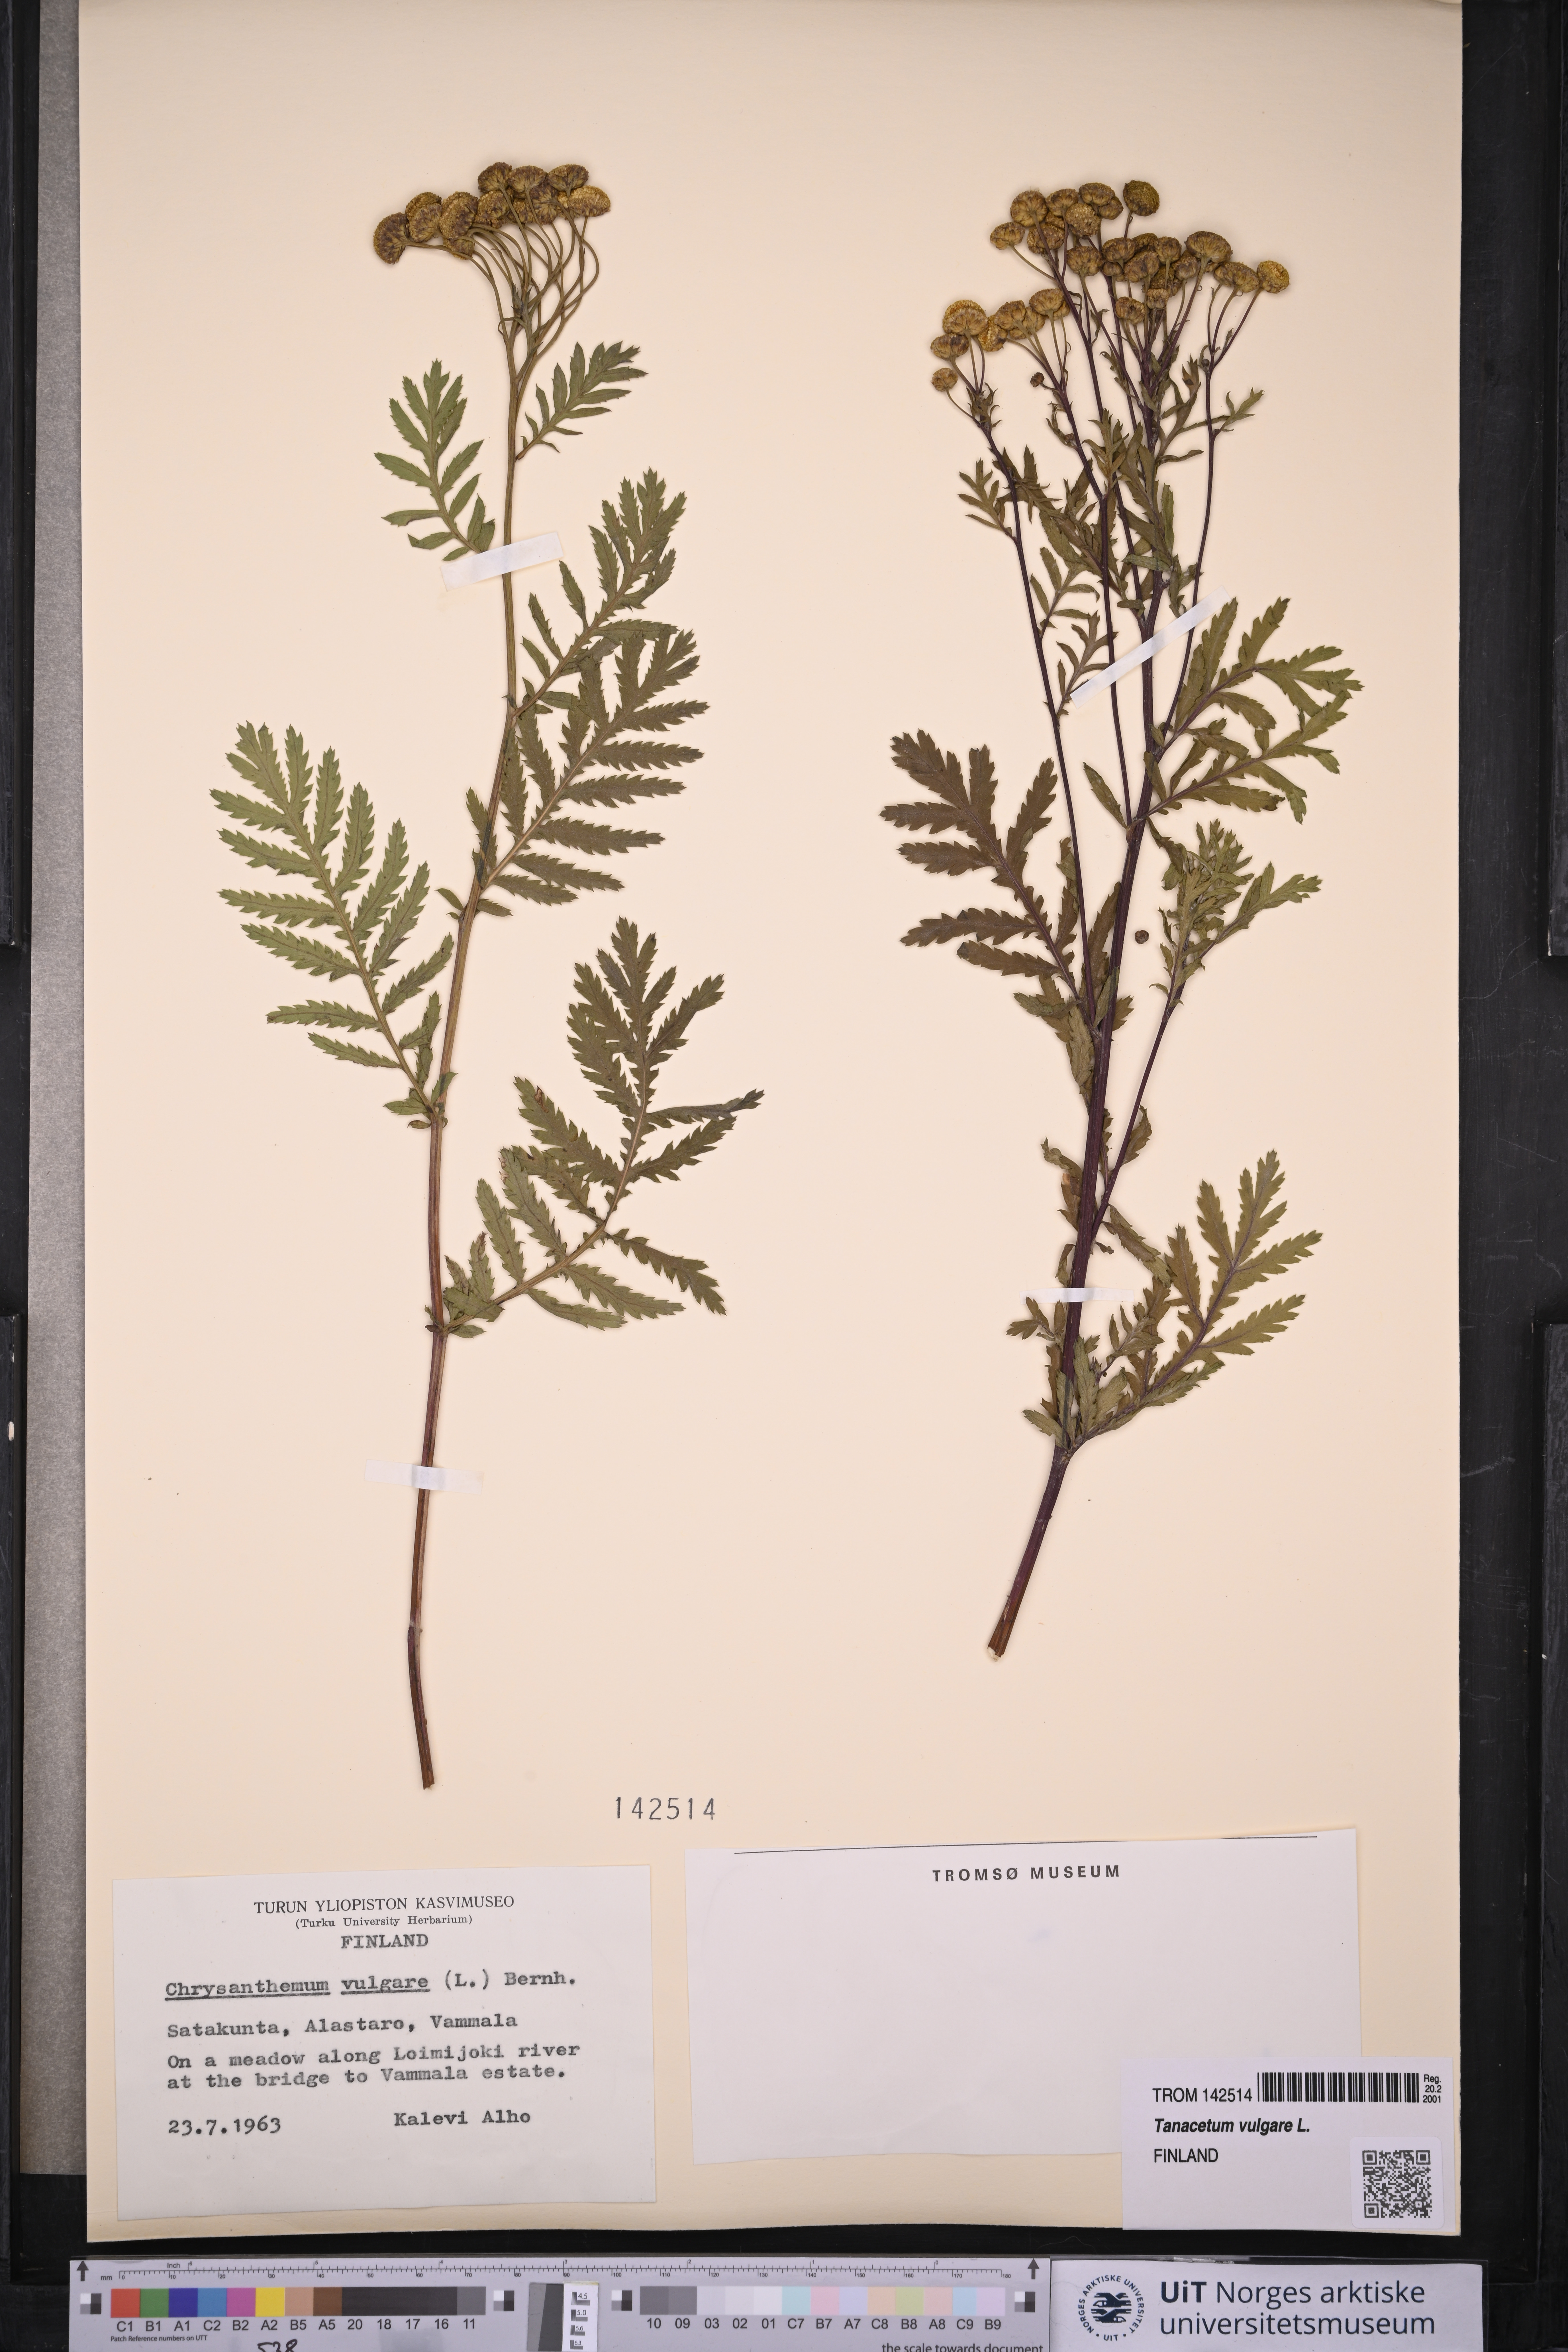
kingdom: Plantae
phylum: Tracheophyta
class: Magnoliopsida
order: Asterales
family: Asteraceae
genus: Tanacetum
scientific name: Tanacetum vulgare
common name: Common tansy
